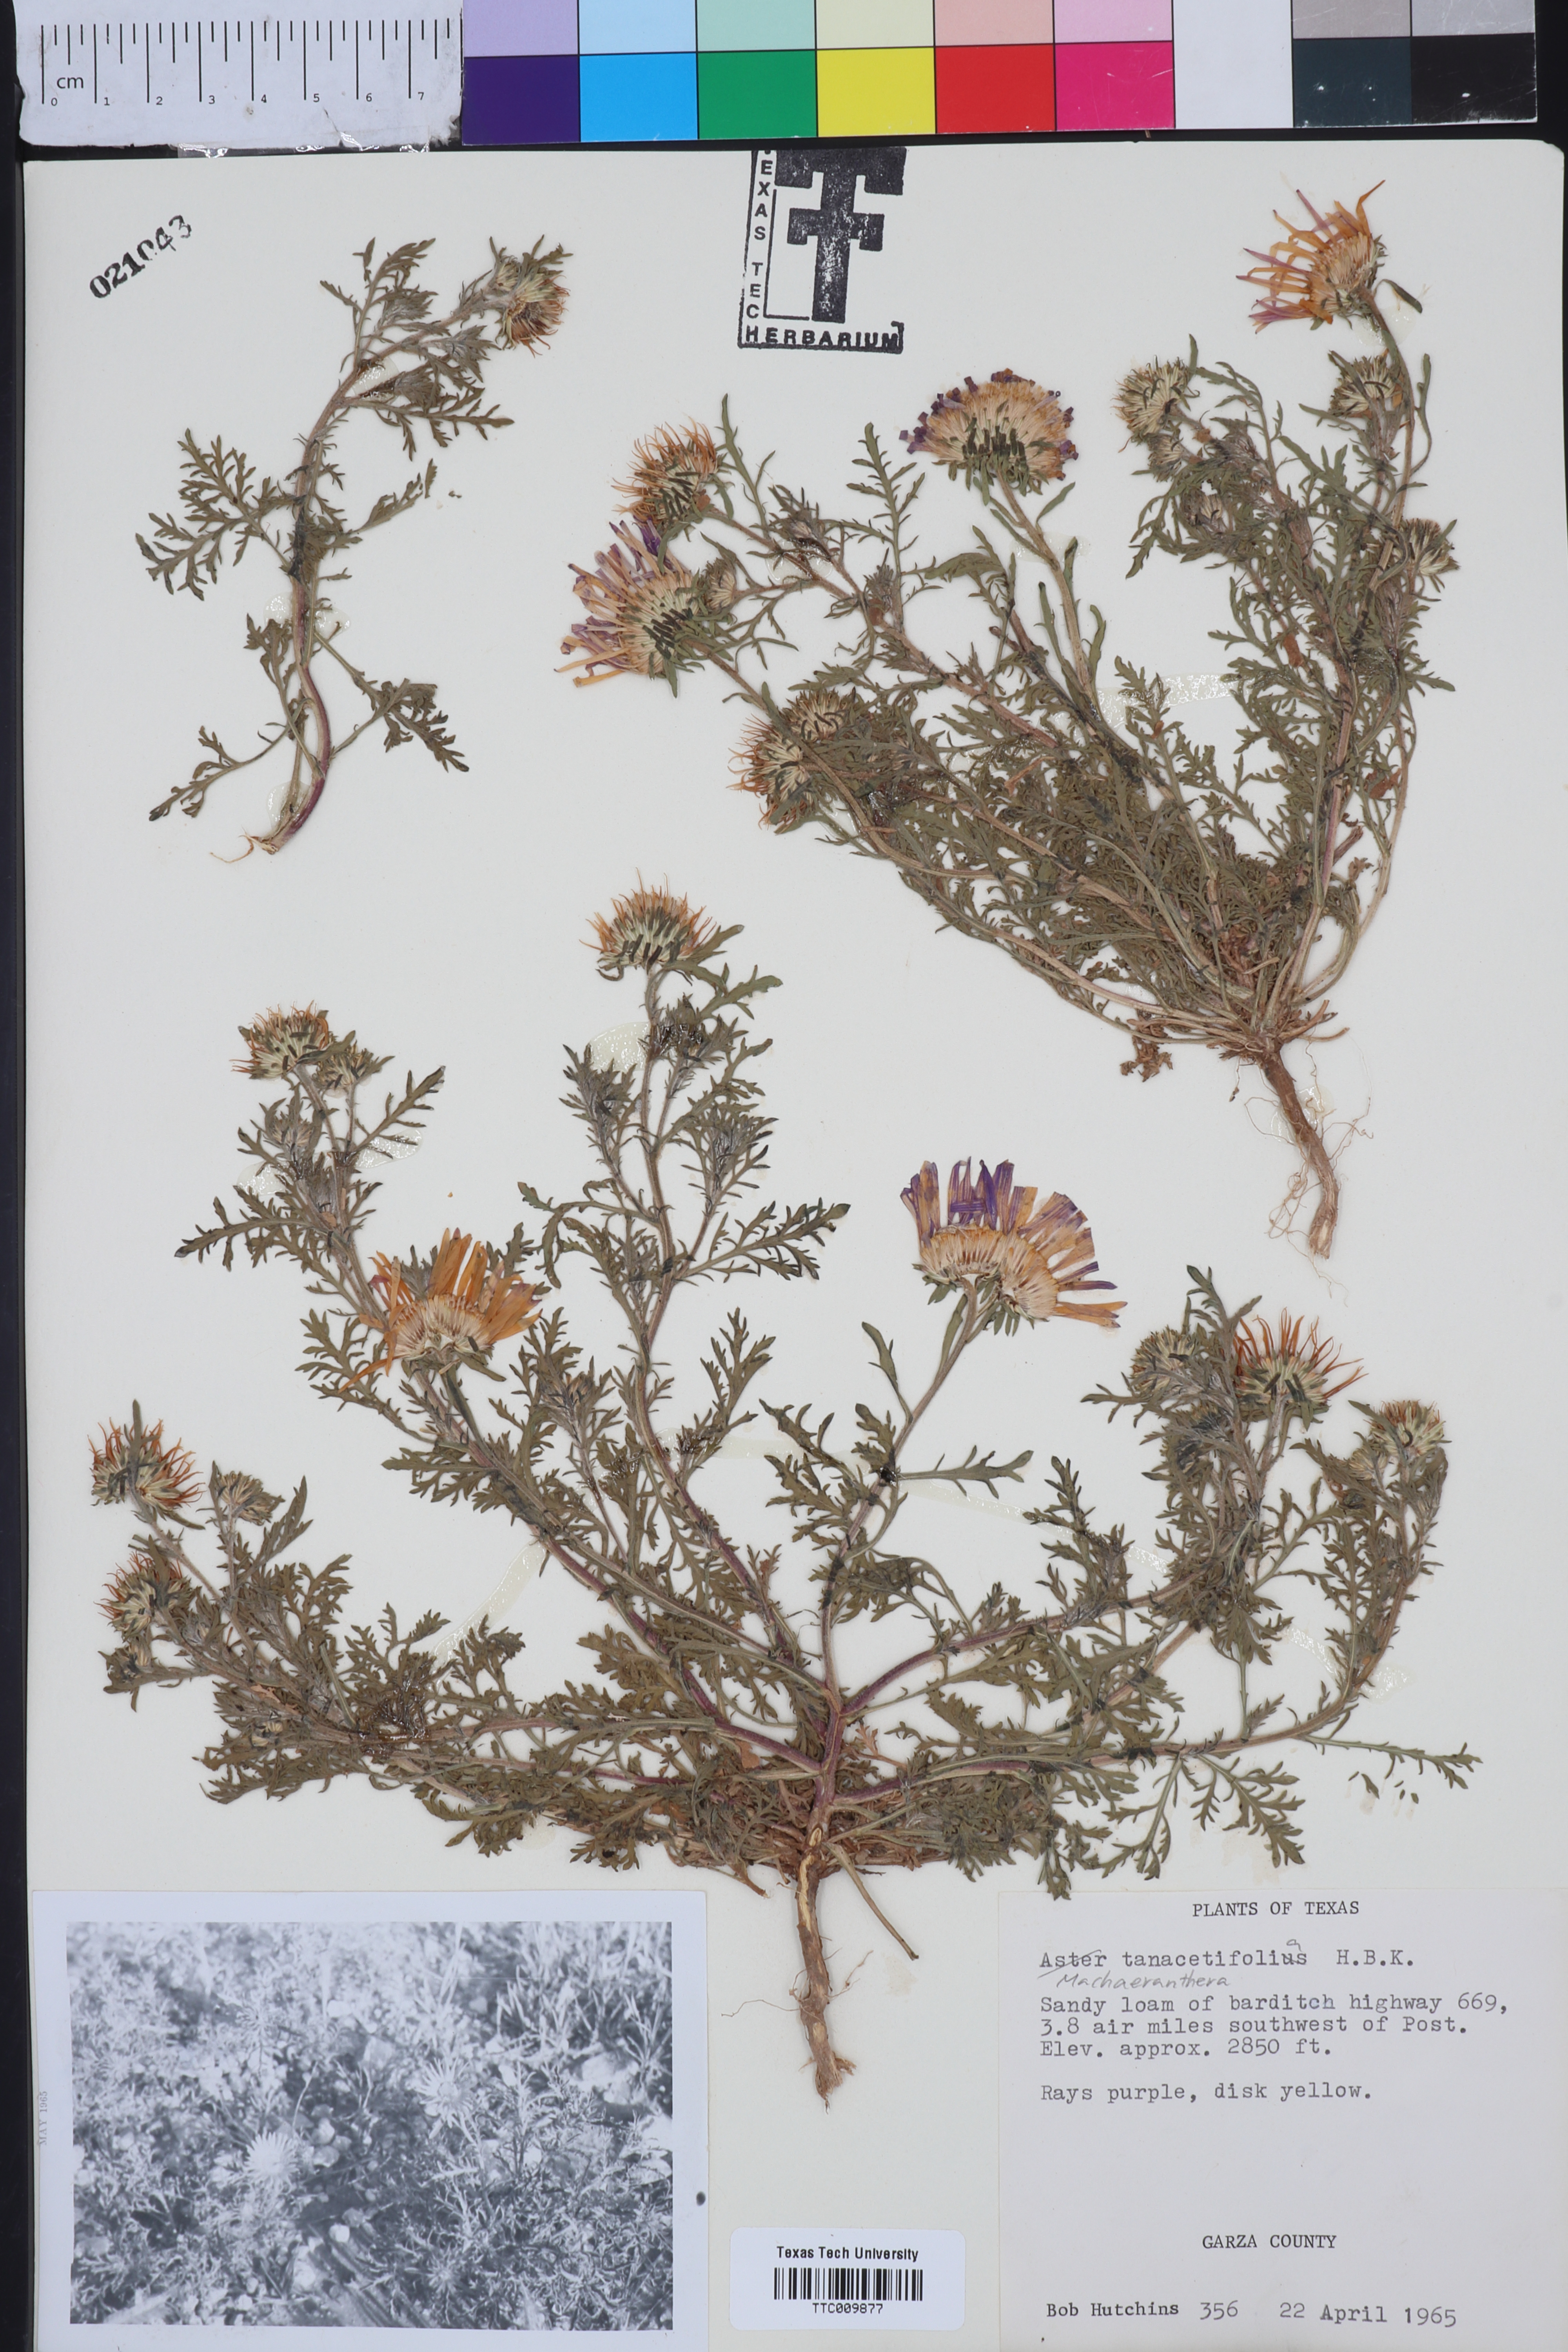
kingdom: Plantae
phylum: Tracheophyta
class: Magnoliopsida
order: Asterales
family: Asteraceae
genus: Machaeranthera
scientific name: Machaeranthera tanacetifolia
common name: Tansy-aster
